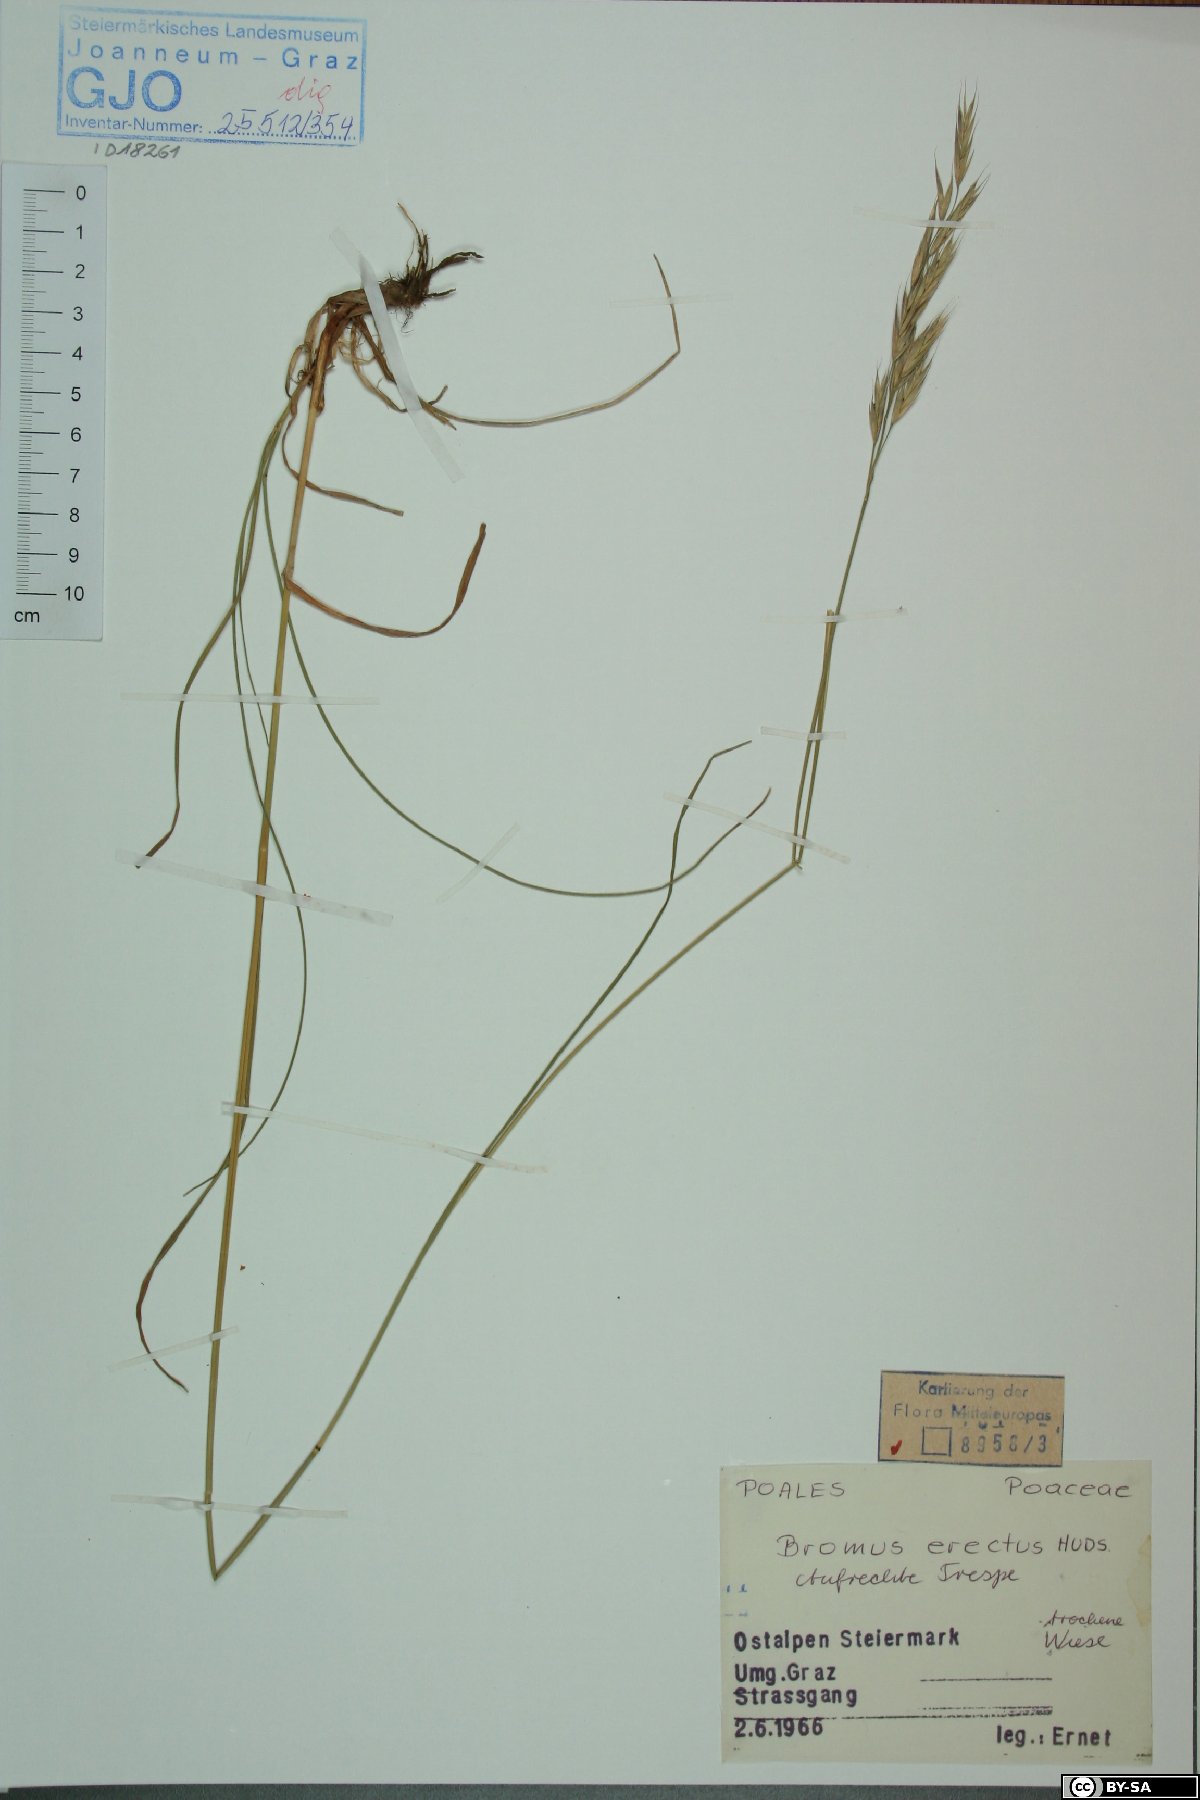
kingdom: Plantae
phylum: Tracheophyta
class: Liliopsida
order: Poales
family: Poaceae
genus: Bromus
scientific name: Bromus erectus
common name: Erect brome
